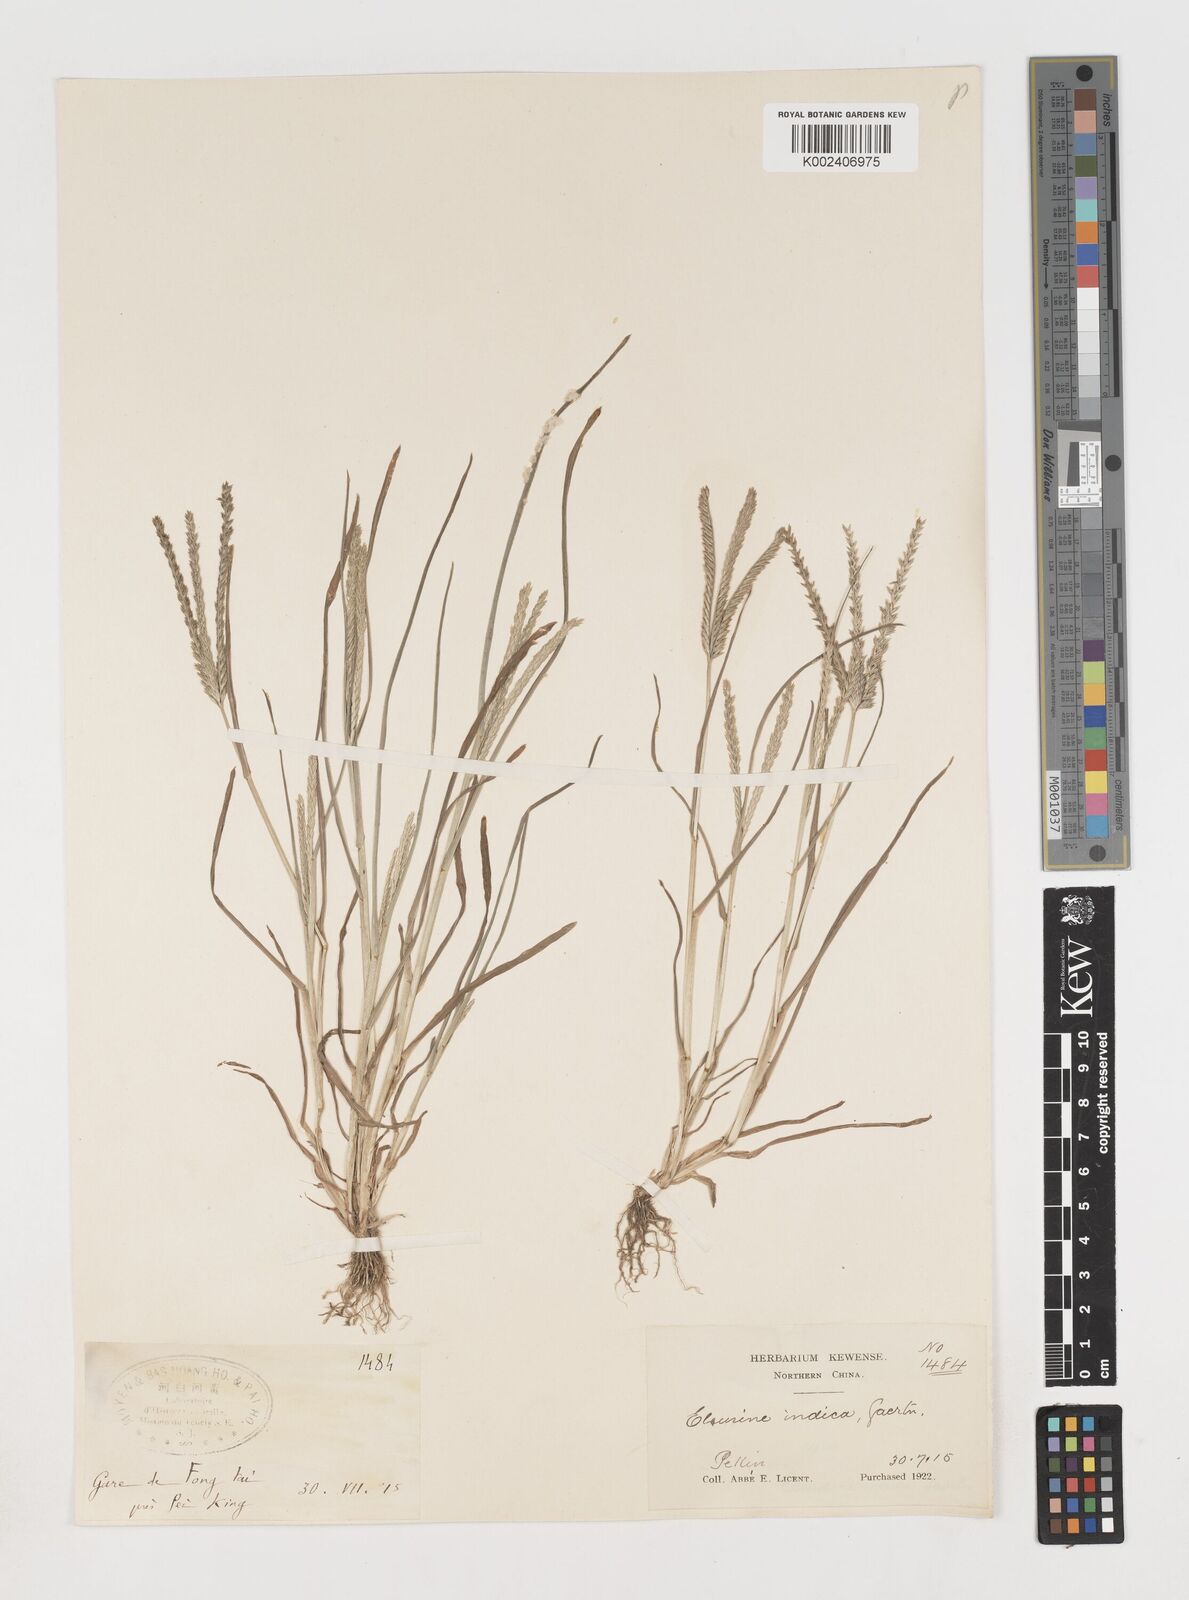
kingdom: Plantae
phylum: Tracheophyta
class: Liliopsida
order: Poales
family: Poaceae
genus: Eleusine
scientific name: Eleusine indica
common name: Yard-grass
